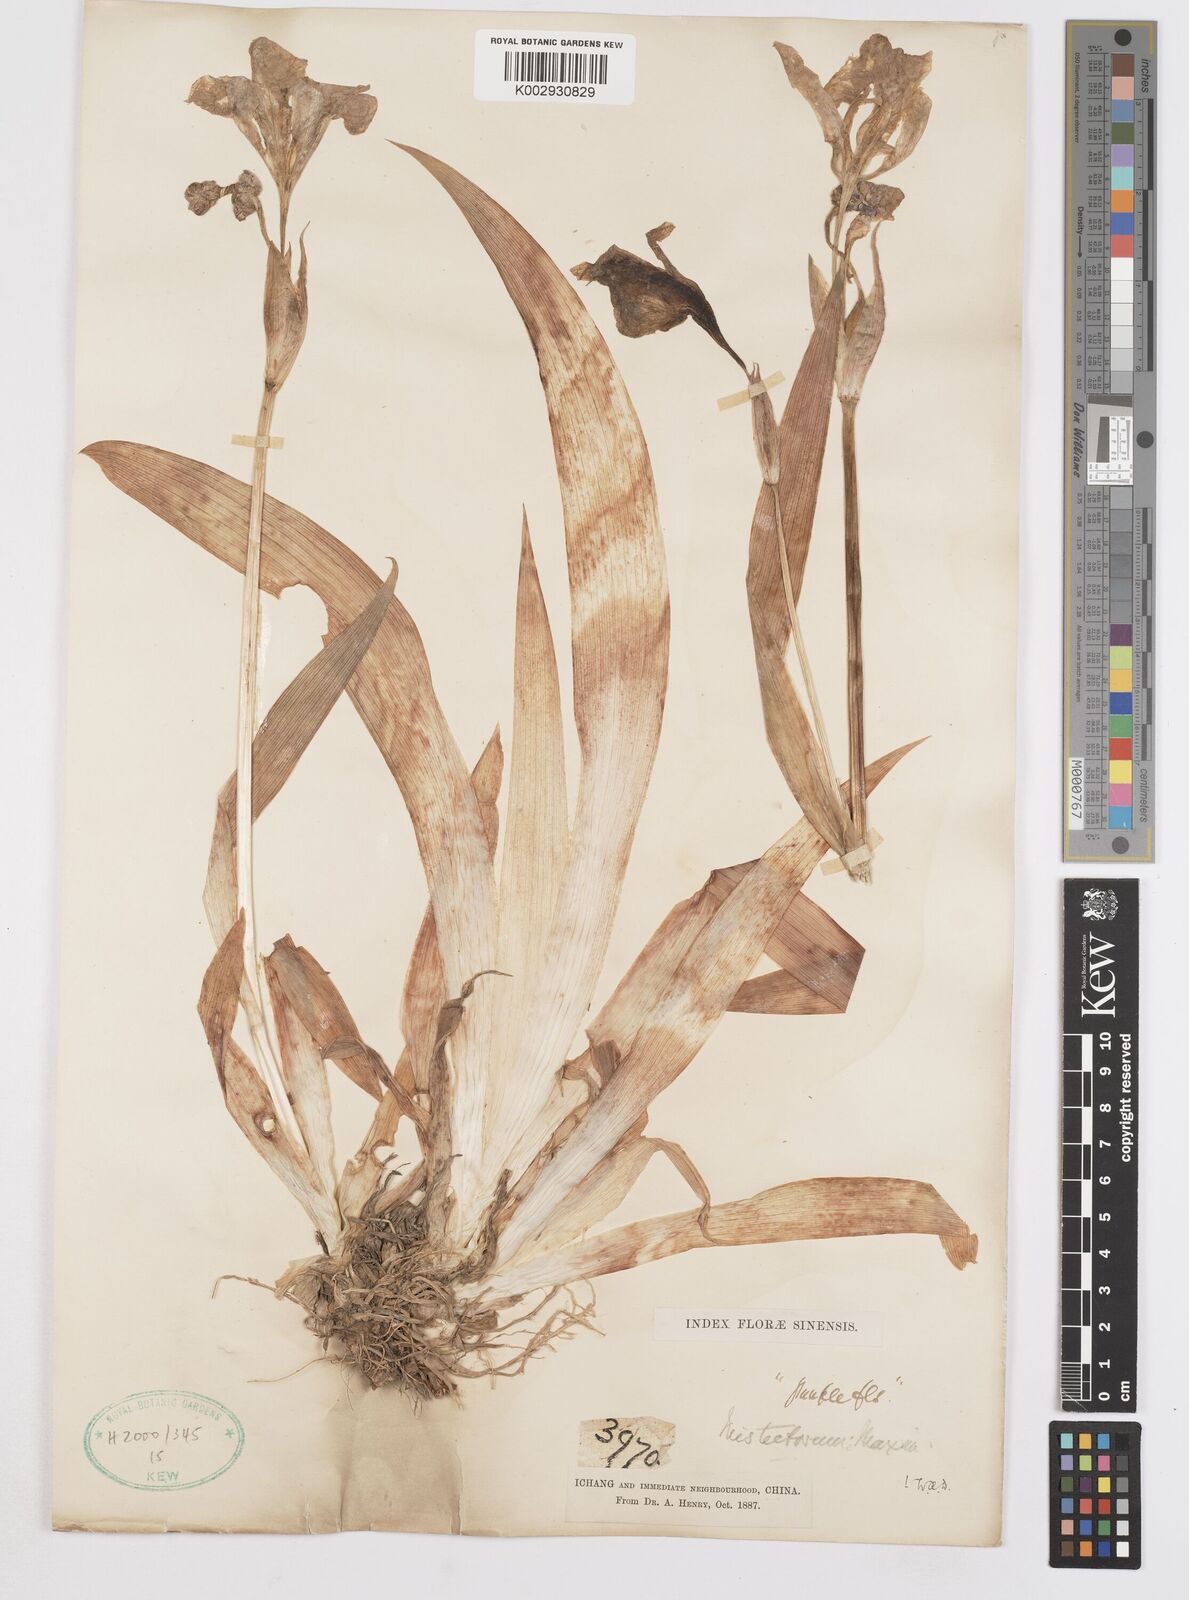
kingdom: Plantae
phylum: Tracheophyta
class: Liliopsida
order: Asparagales
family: Iridaceae
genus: Iris
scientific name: Iris tectorum
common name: Wall iris
